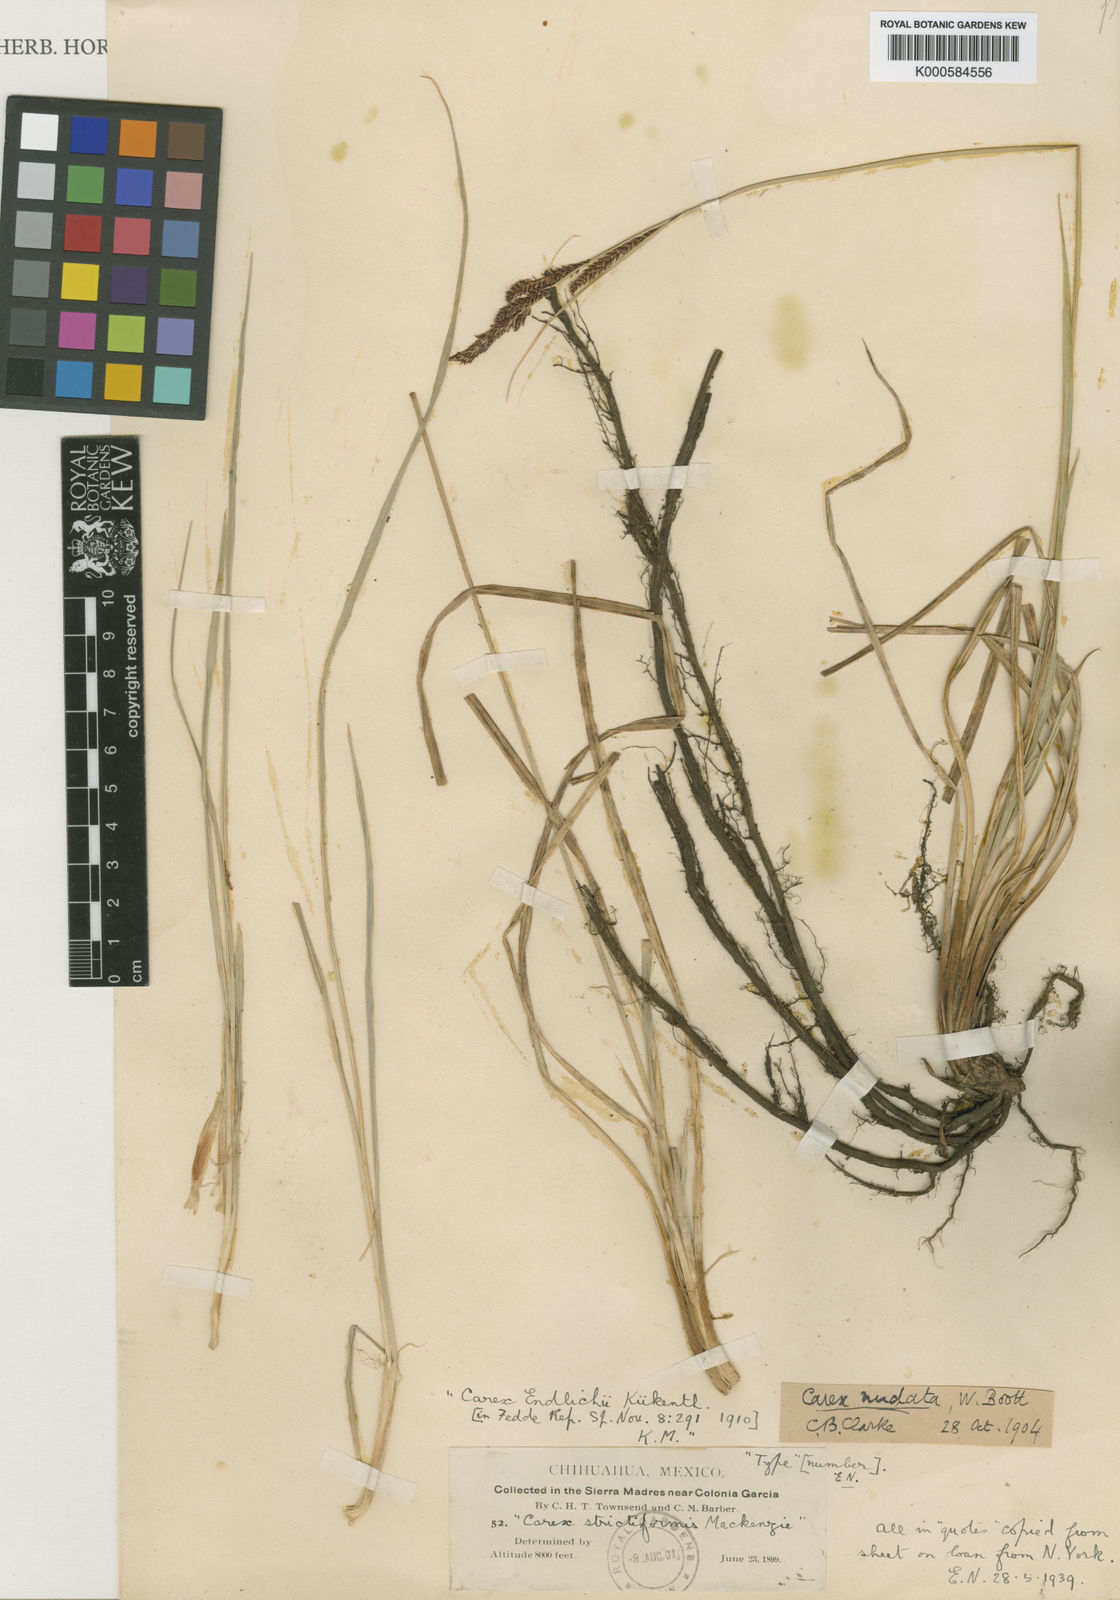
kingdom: Plantae
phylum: Tracheophyta
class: Liliopsida
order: Poales
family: Cyperaceae
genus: Carex
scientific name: Carex
